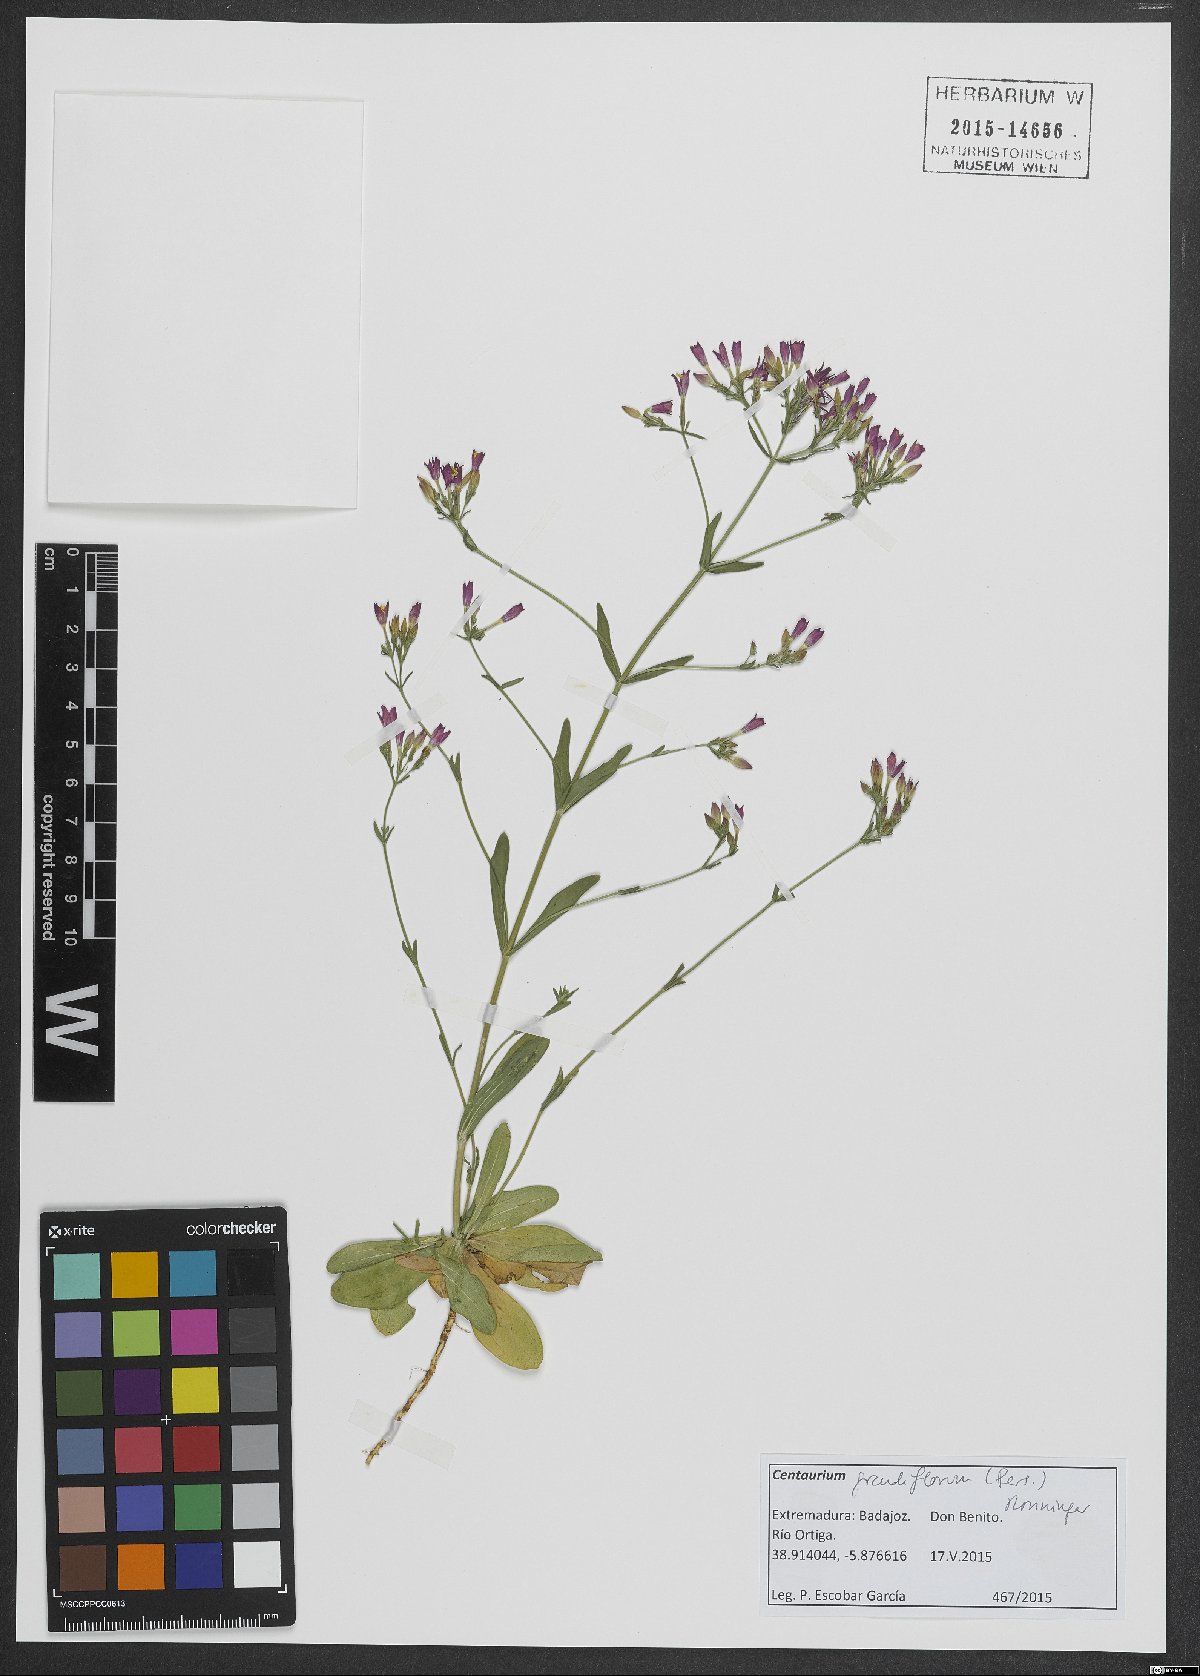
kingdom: Plantae
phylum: Tracheophyta
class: Magnoliopsida
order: Gentianales
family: Gentianaceae
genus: Centaurium
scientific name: Centaurium grandiflorum
